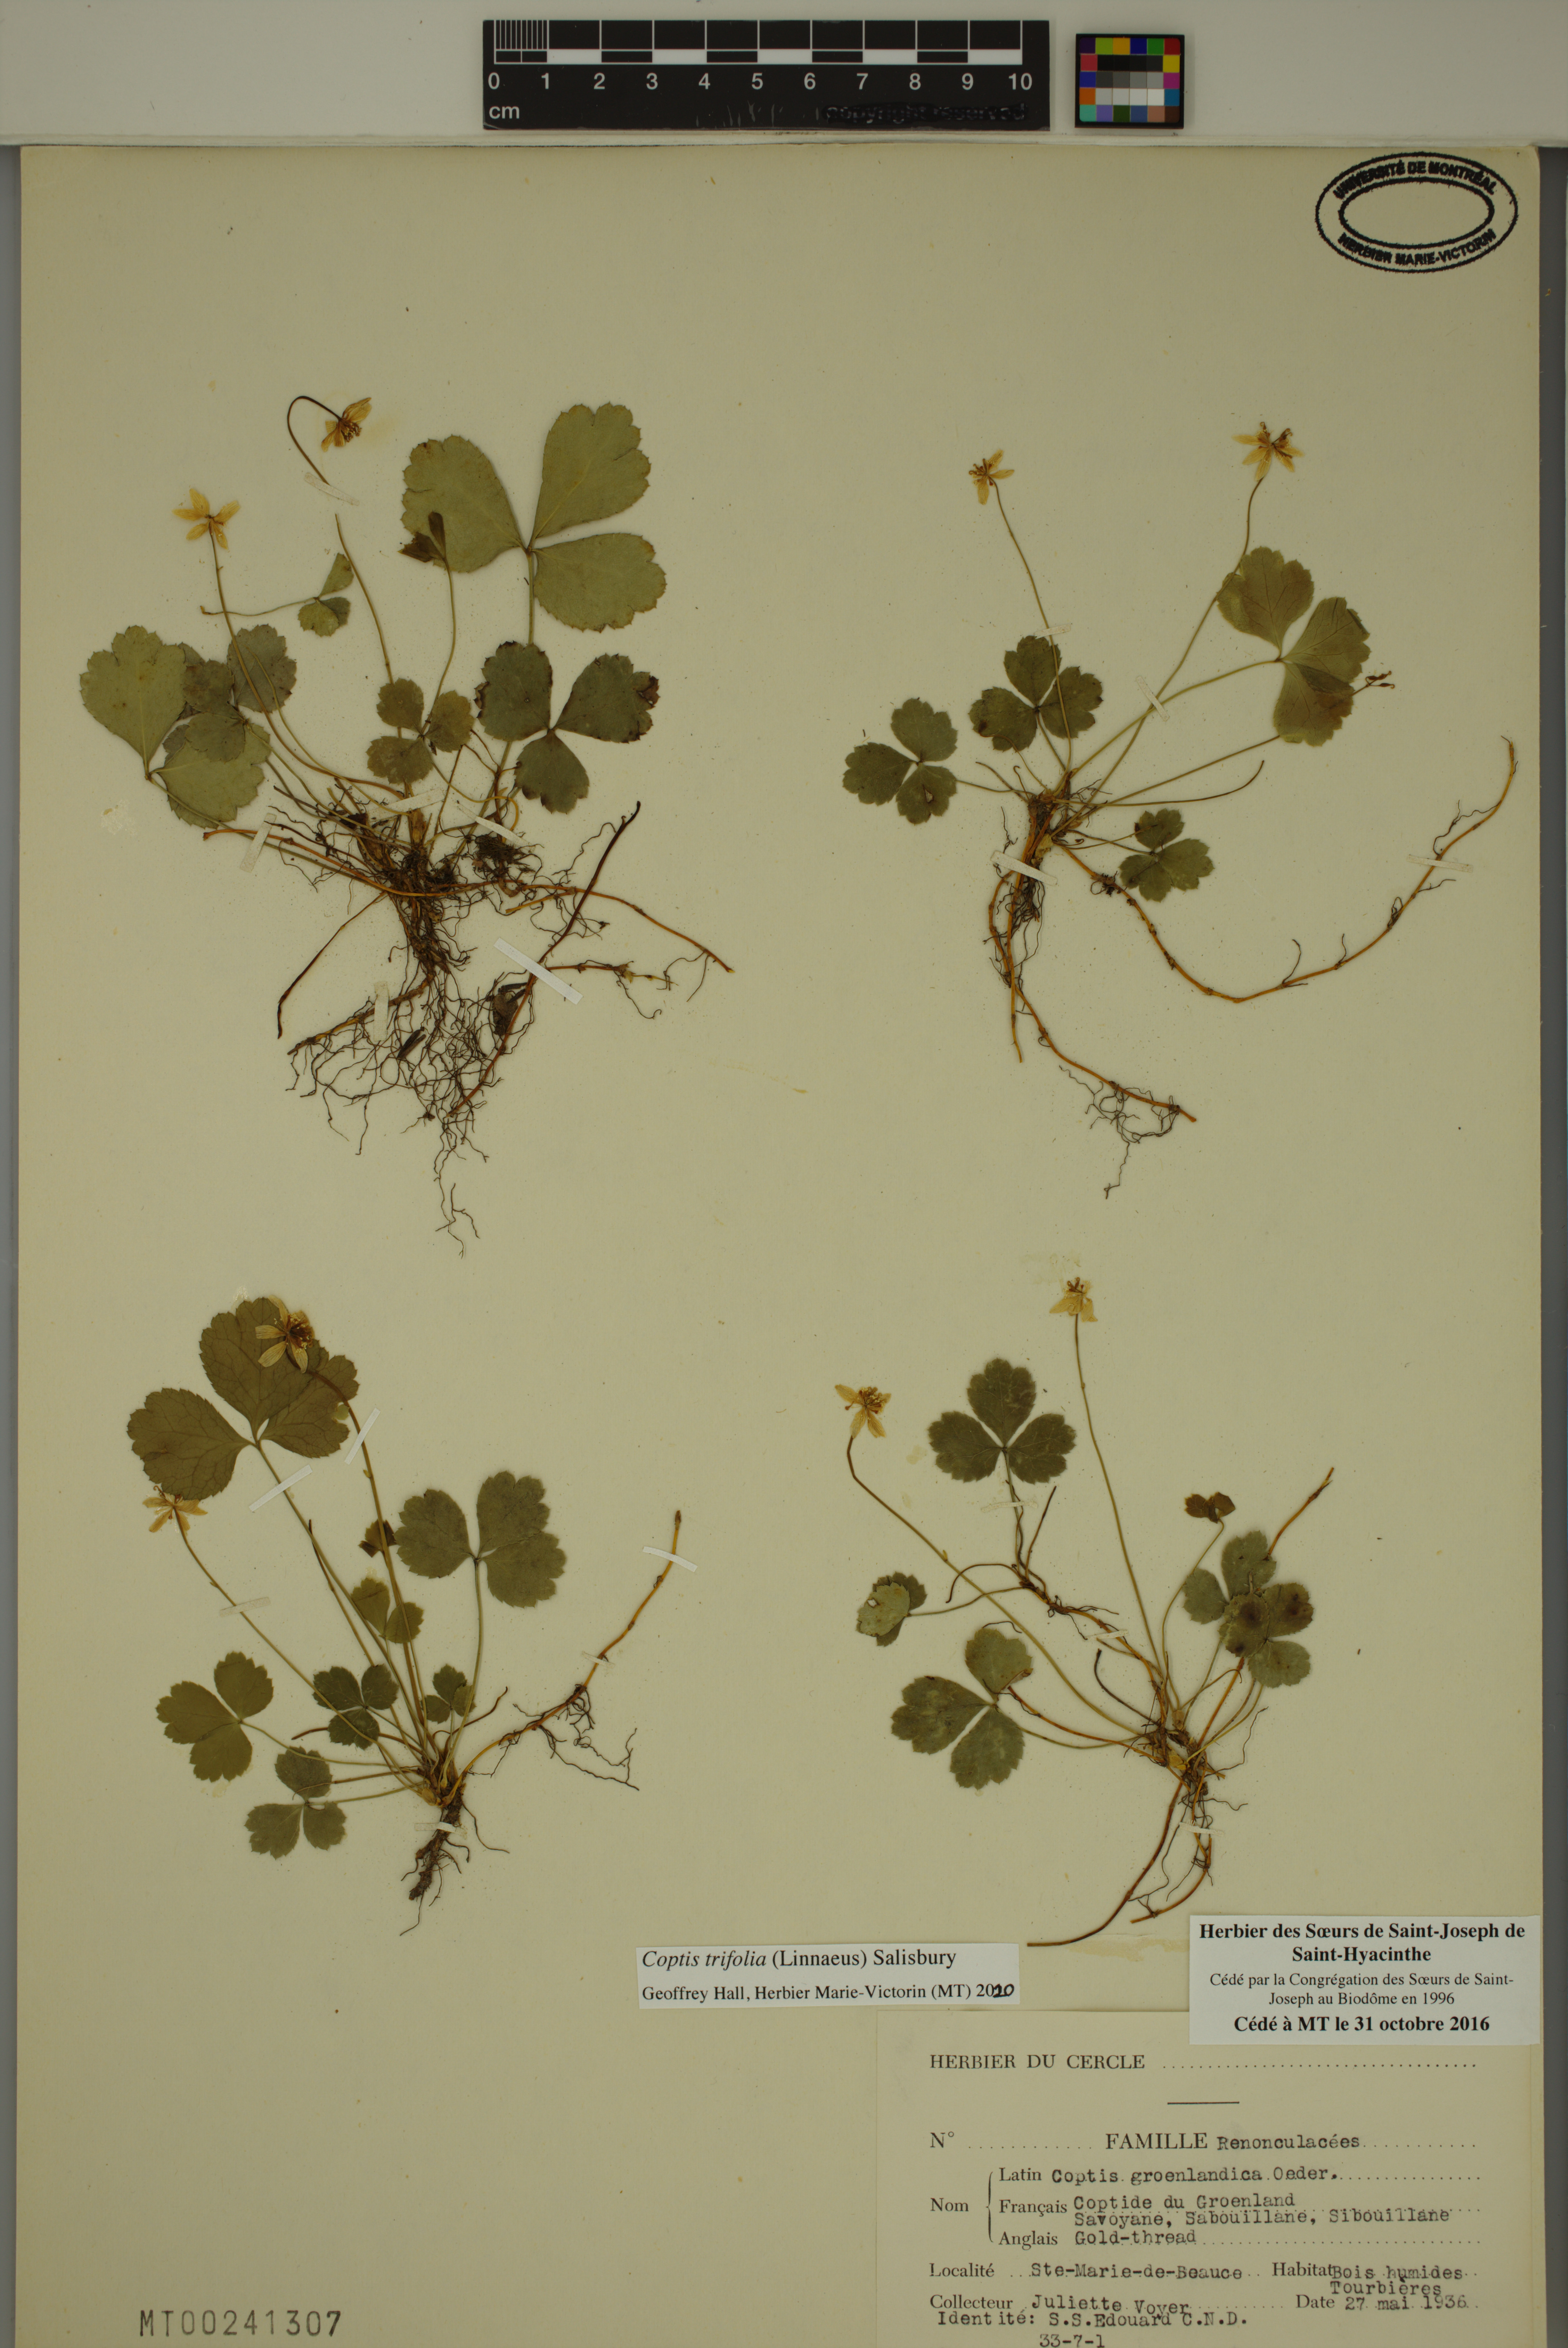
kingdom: Plantae
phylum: Tracheophyta
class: Magnoliopsida
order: Ranunculales
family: Ranunculaceae
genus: Coptis
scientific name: Coptis trifolia
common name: Canker-root
